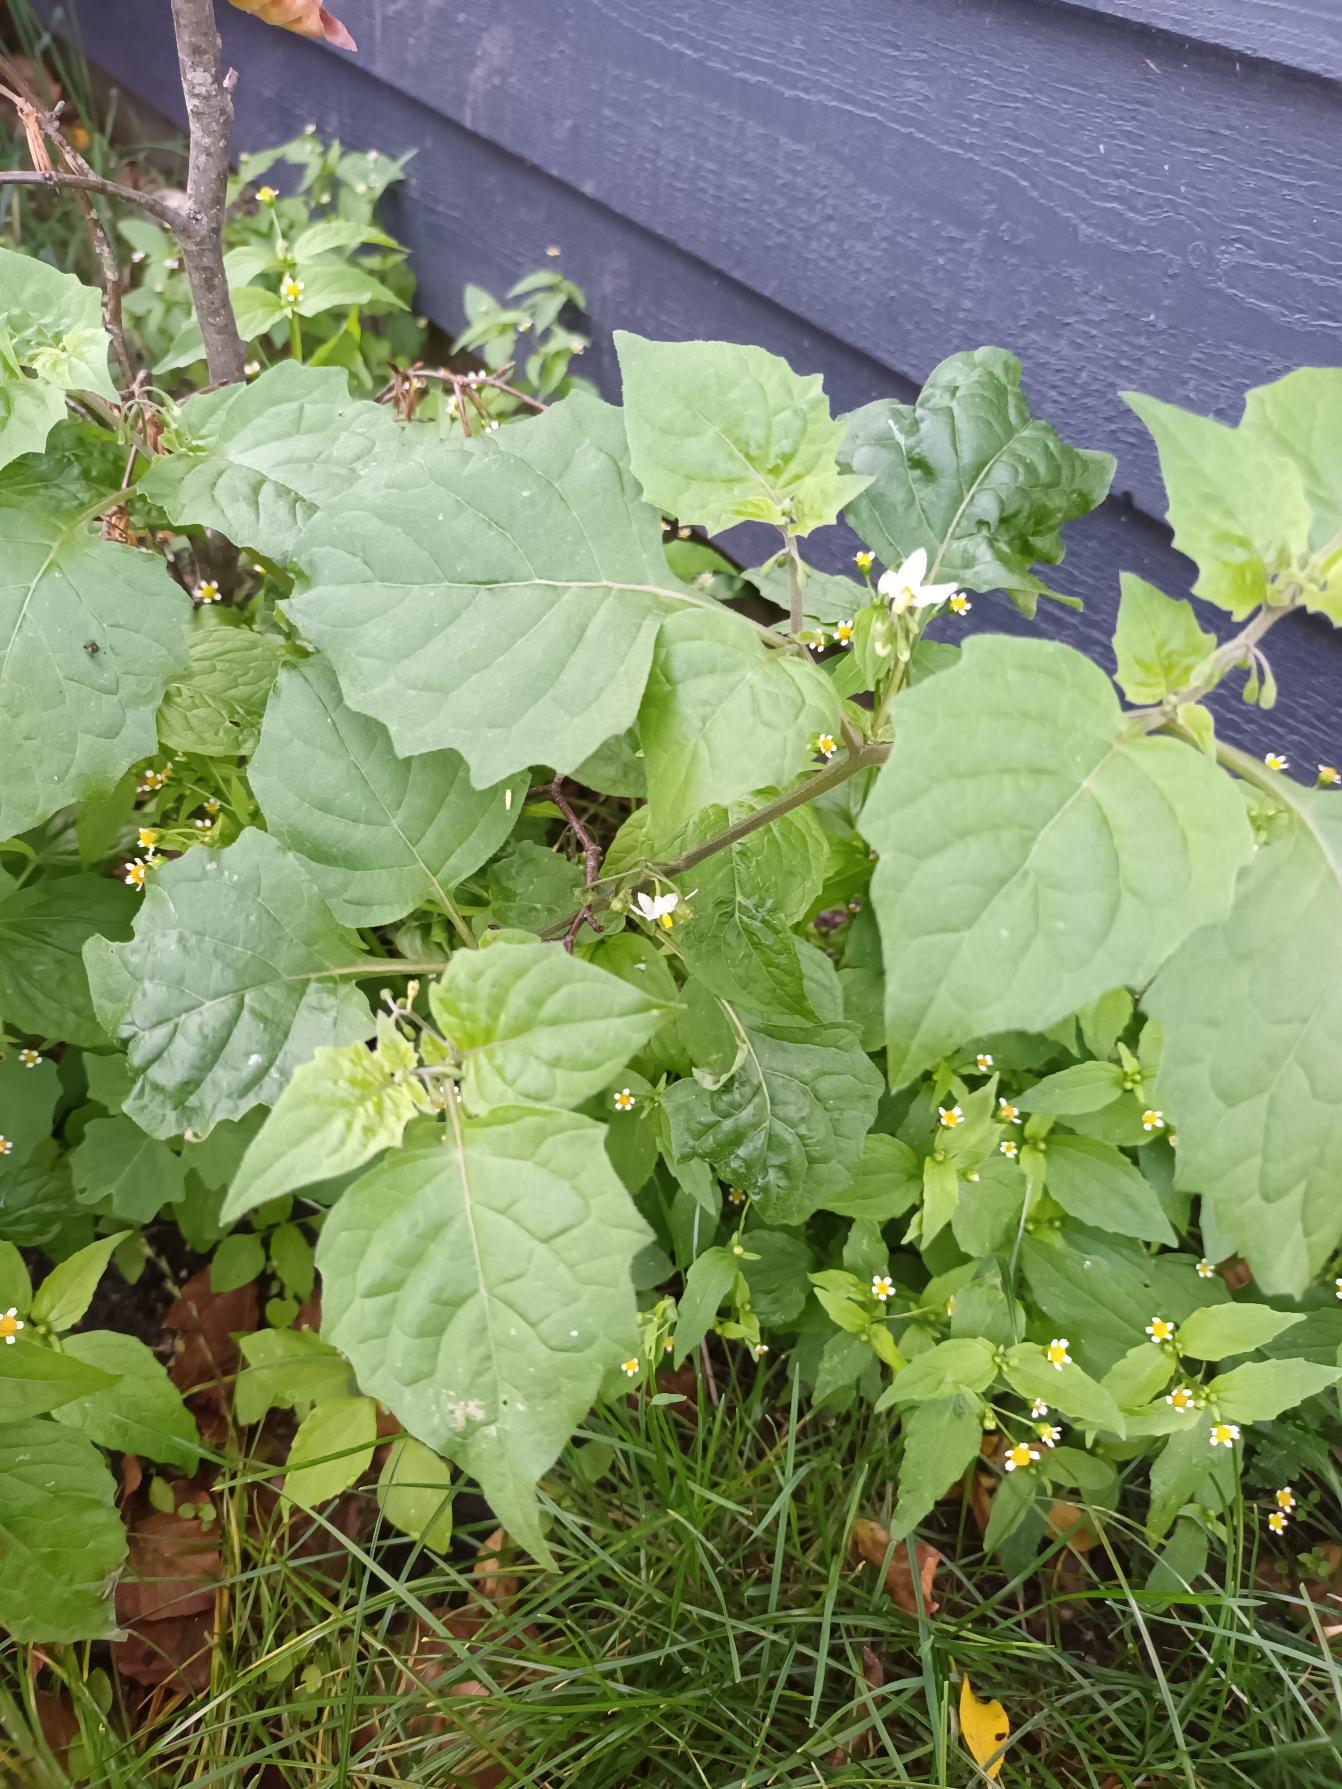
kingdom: Plantae
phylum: Tracheophyta
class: Magnoliopsida
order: Solanales
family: Solanaceae
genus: Solanum
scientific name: Solanum nigrum
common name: Sort natskygge
